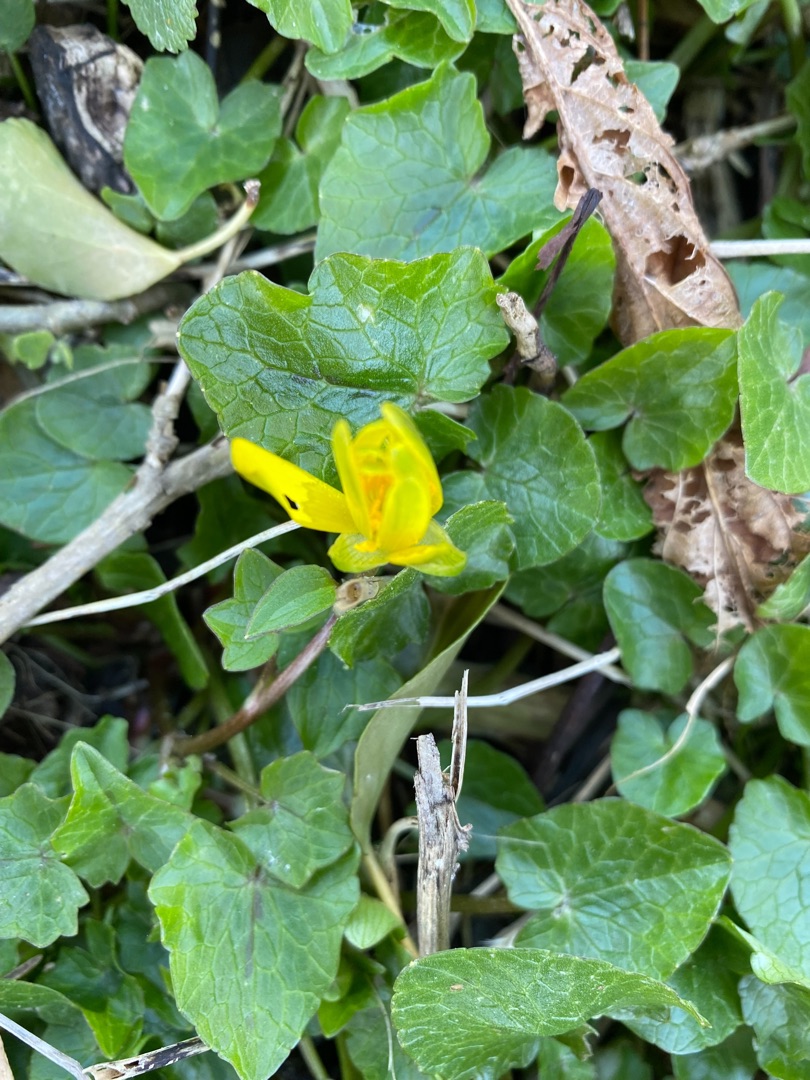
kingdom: Plantae
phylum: Tracheophyta
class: Magnoliopsida
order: Ranunculales
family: Ranunculaceae
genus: Ficaria
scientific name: Ficaria verna
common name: Vorterod
